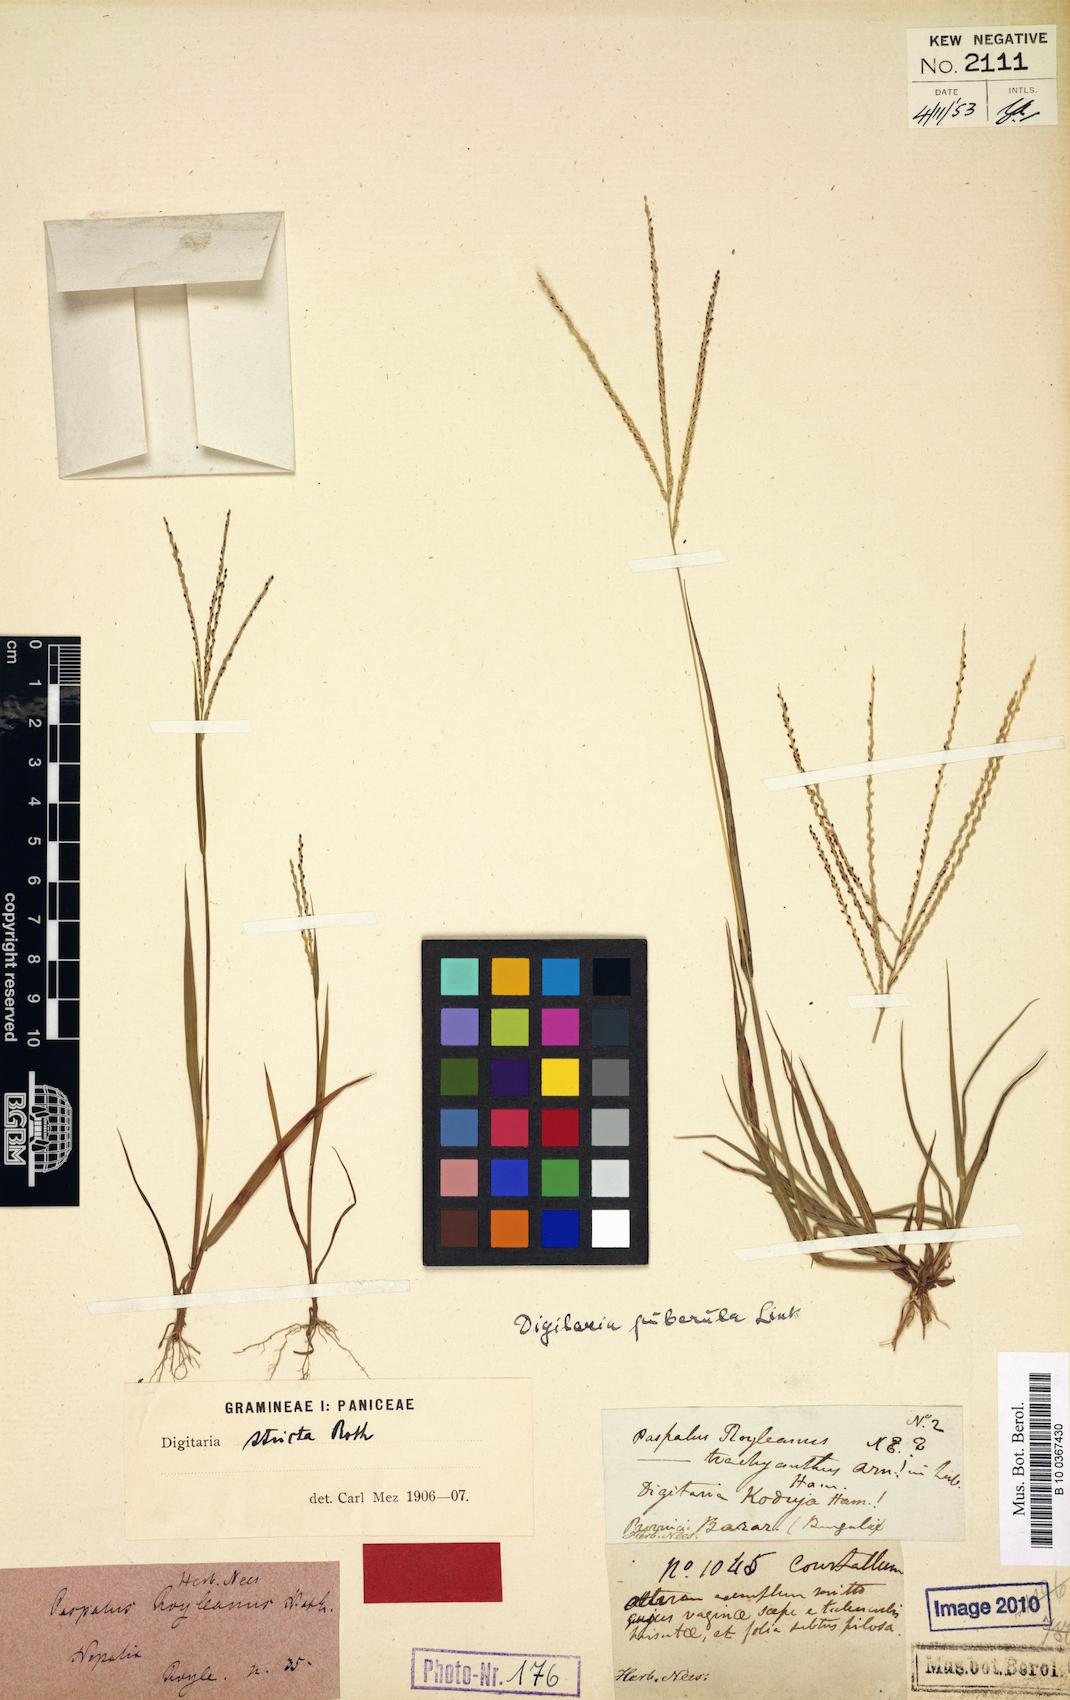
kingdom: Plantae
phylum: Tracheophyta
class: Liliopsida
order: Poales
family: Poaceae
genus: Paspalum
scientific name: Paspalum royleanum
